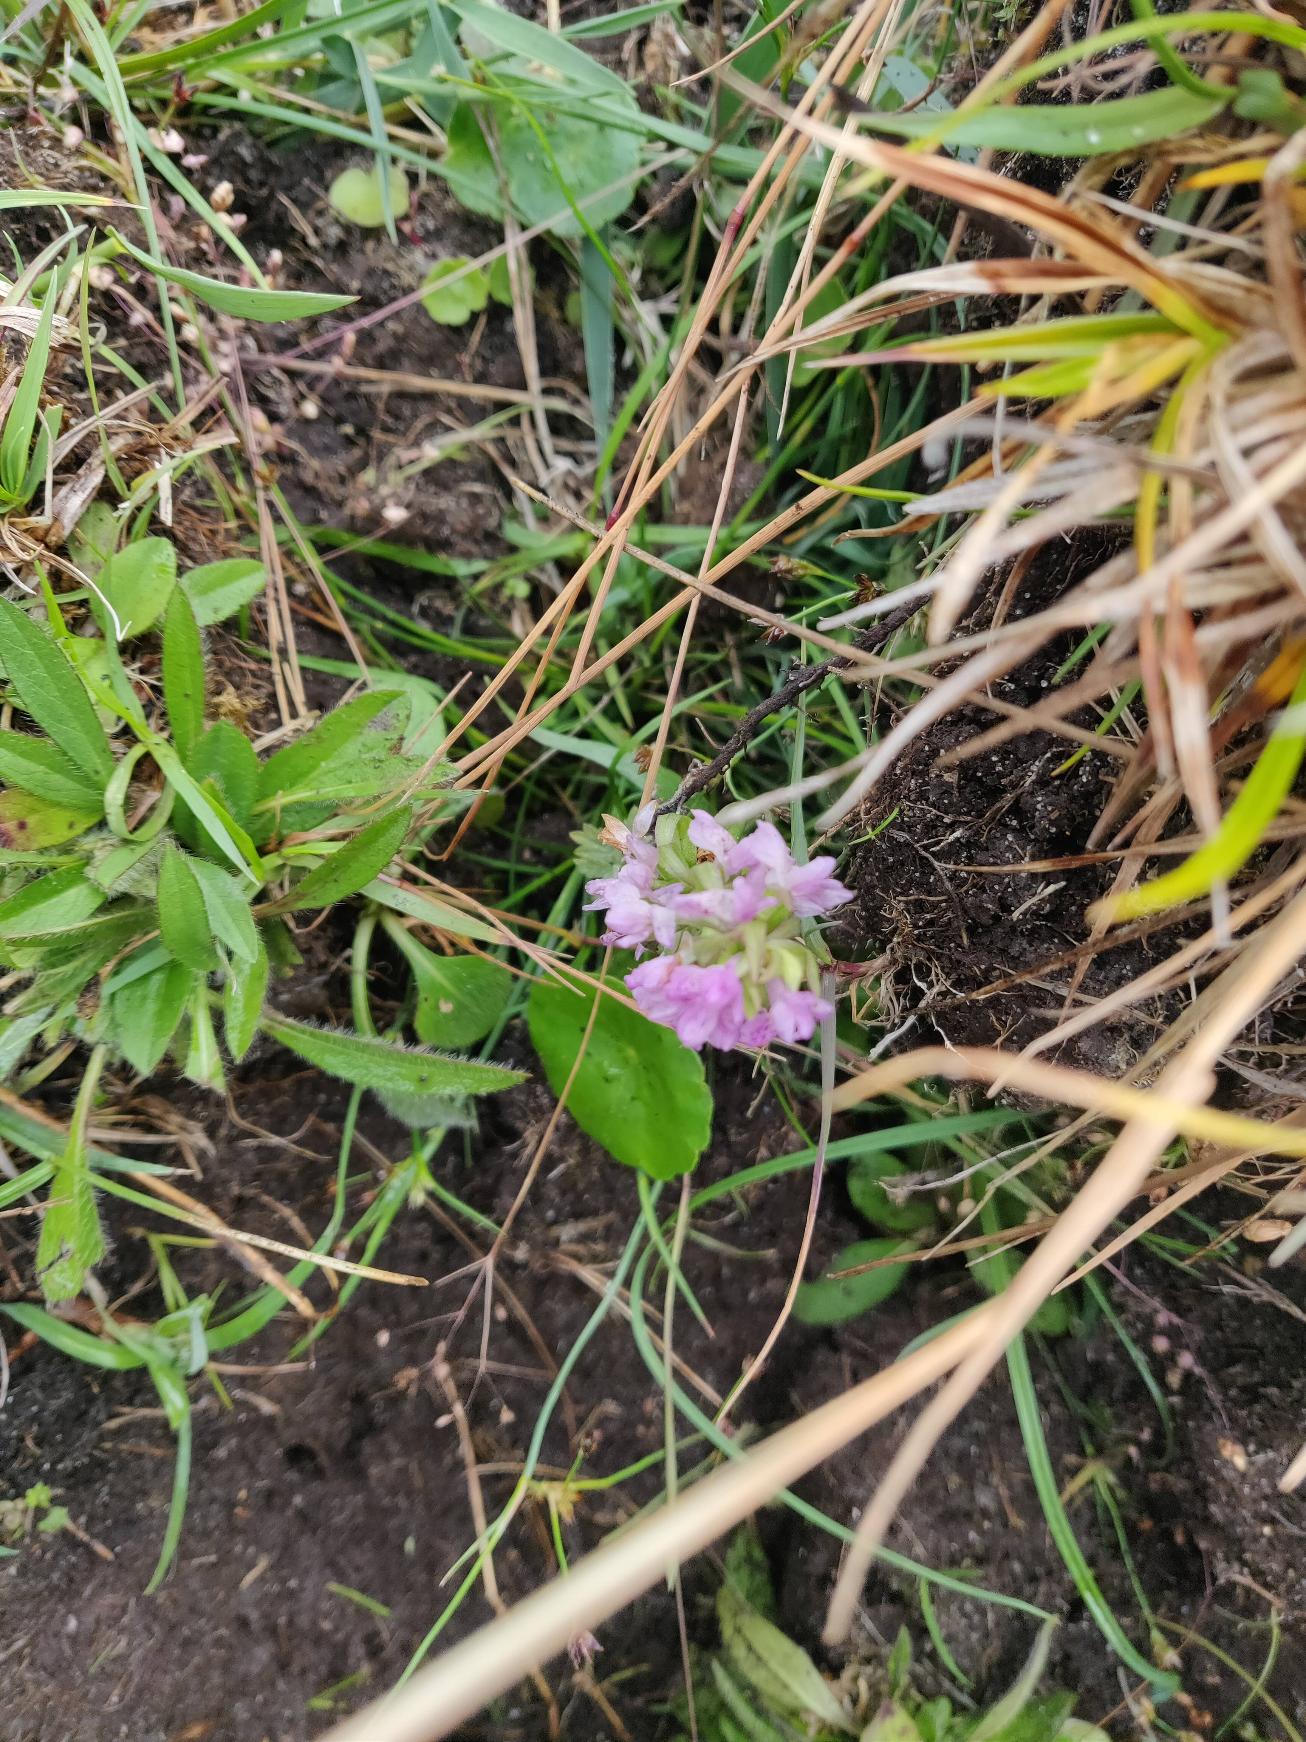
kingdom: Plantae
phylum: Tracheophyta
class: Liliopsida
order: Asparagales
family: Orchidaceae
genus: Dactylorhiza
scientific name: Dactylorhiza incarnata
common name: Kødfarvet gøgeurt
